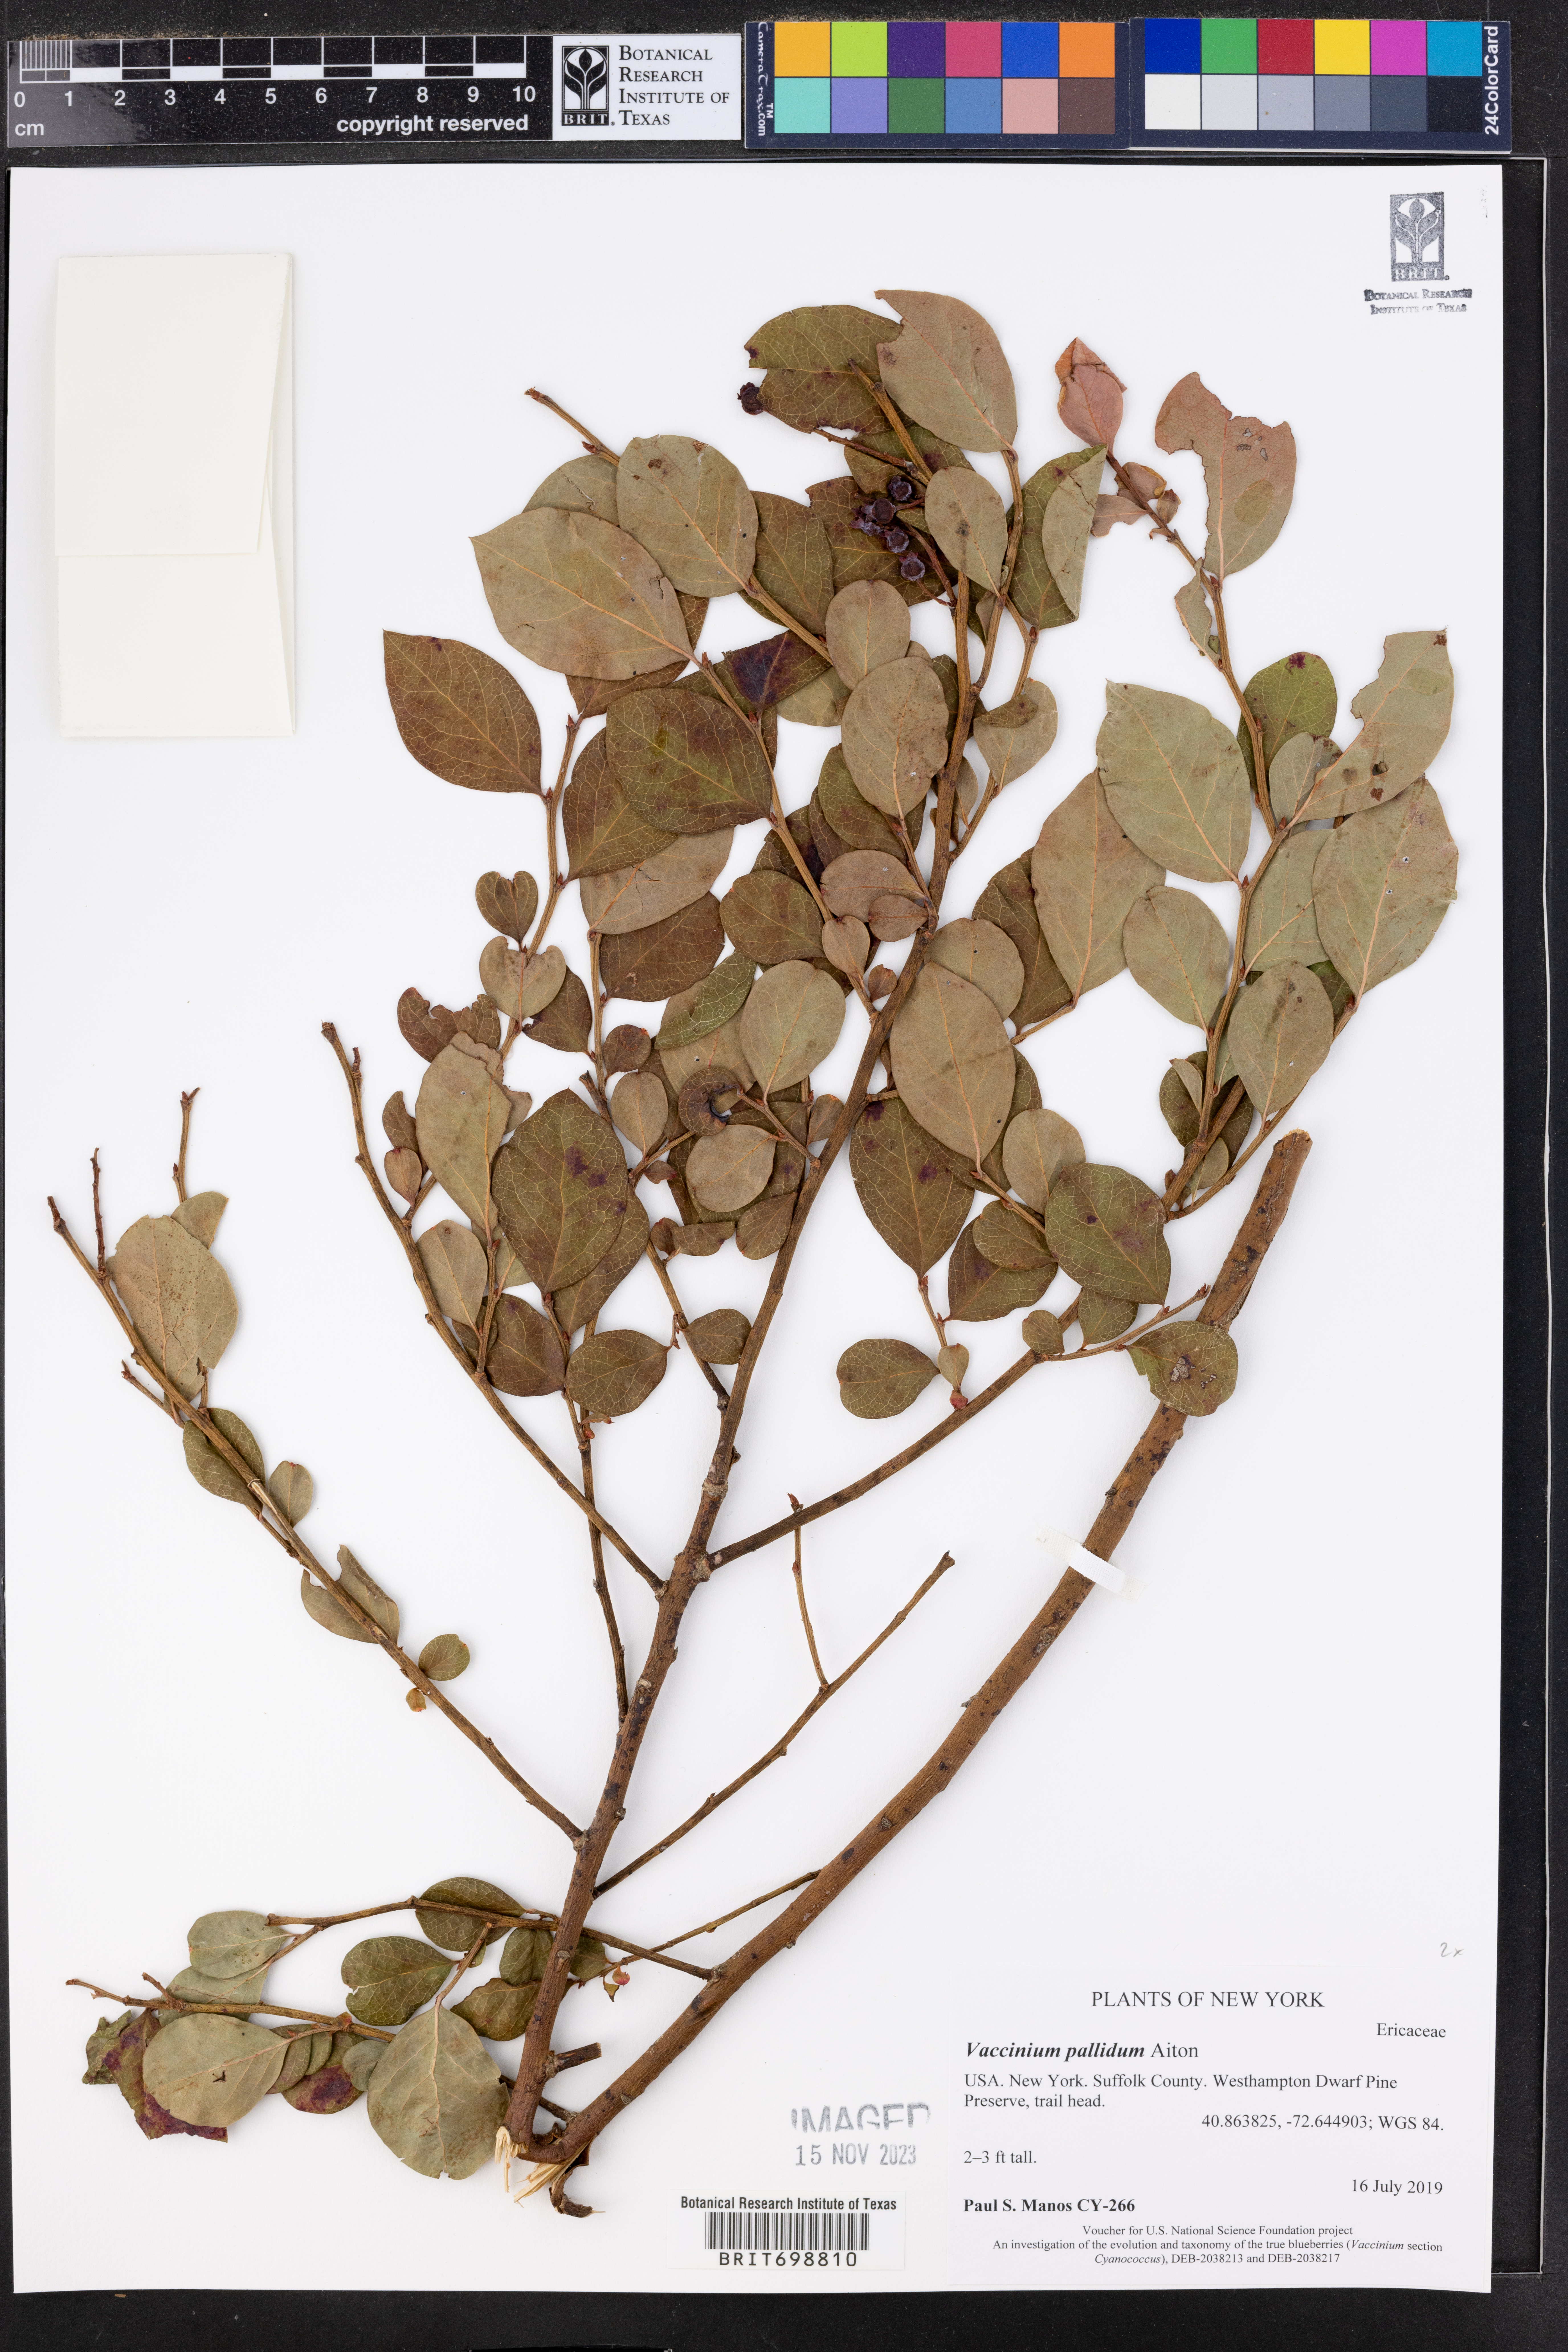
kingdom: Plantae
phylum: Tracheophyta
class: Magnoliopsida
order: Ericales
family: Ericaceae
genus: Vaccinium
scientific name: Vaccinium pallidum
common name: Blue ridge blueberry
